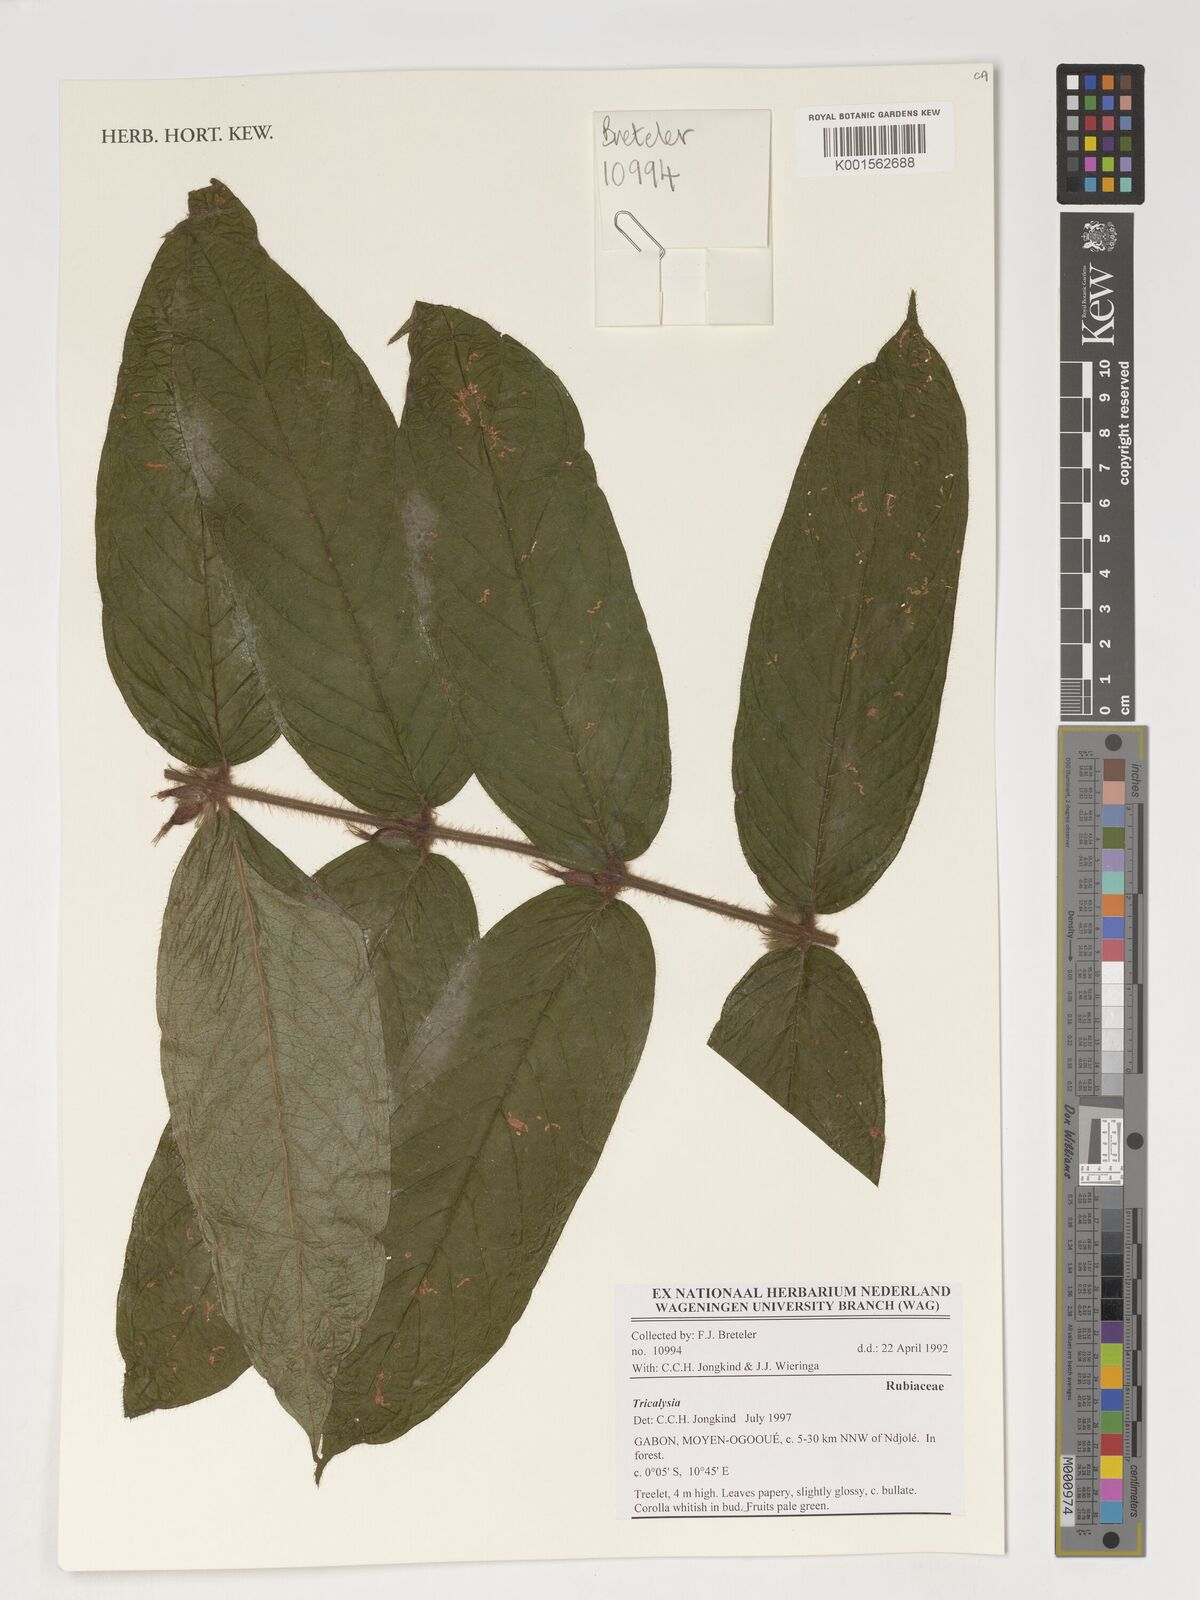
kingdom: Plantae
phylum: Tracheophyta
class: Magnoliopsida
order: Gentianales
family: Rubiaceae
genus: Tricalysia
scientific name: Tricalysia
